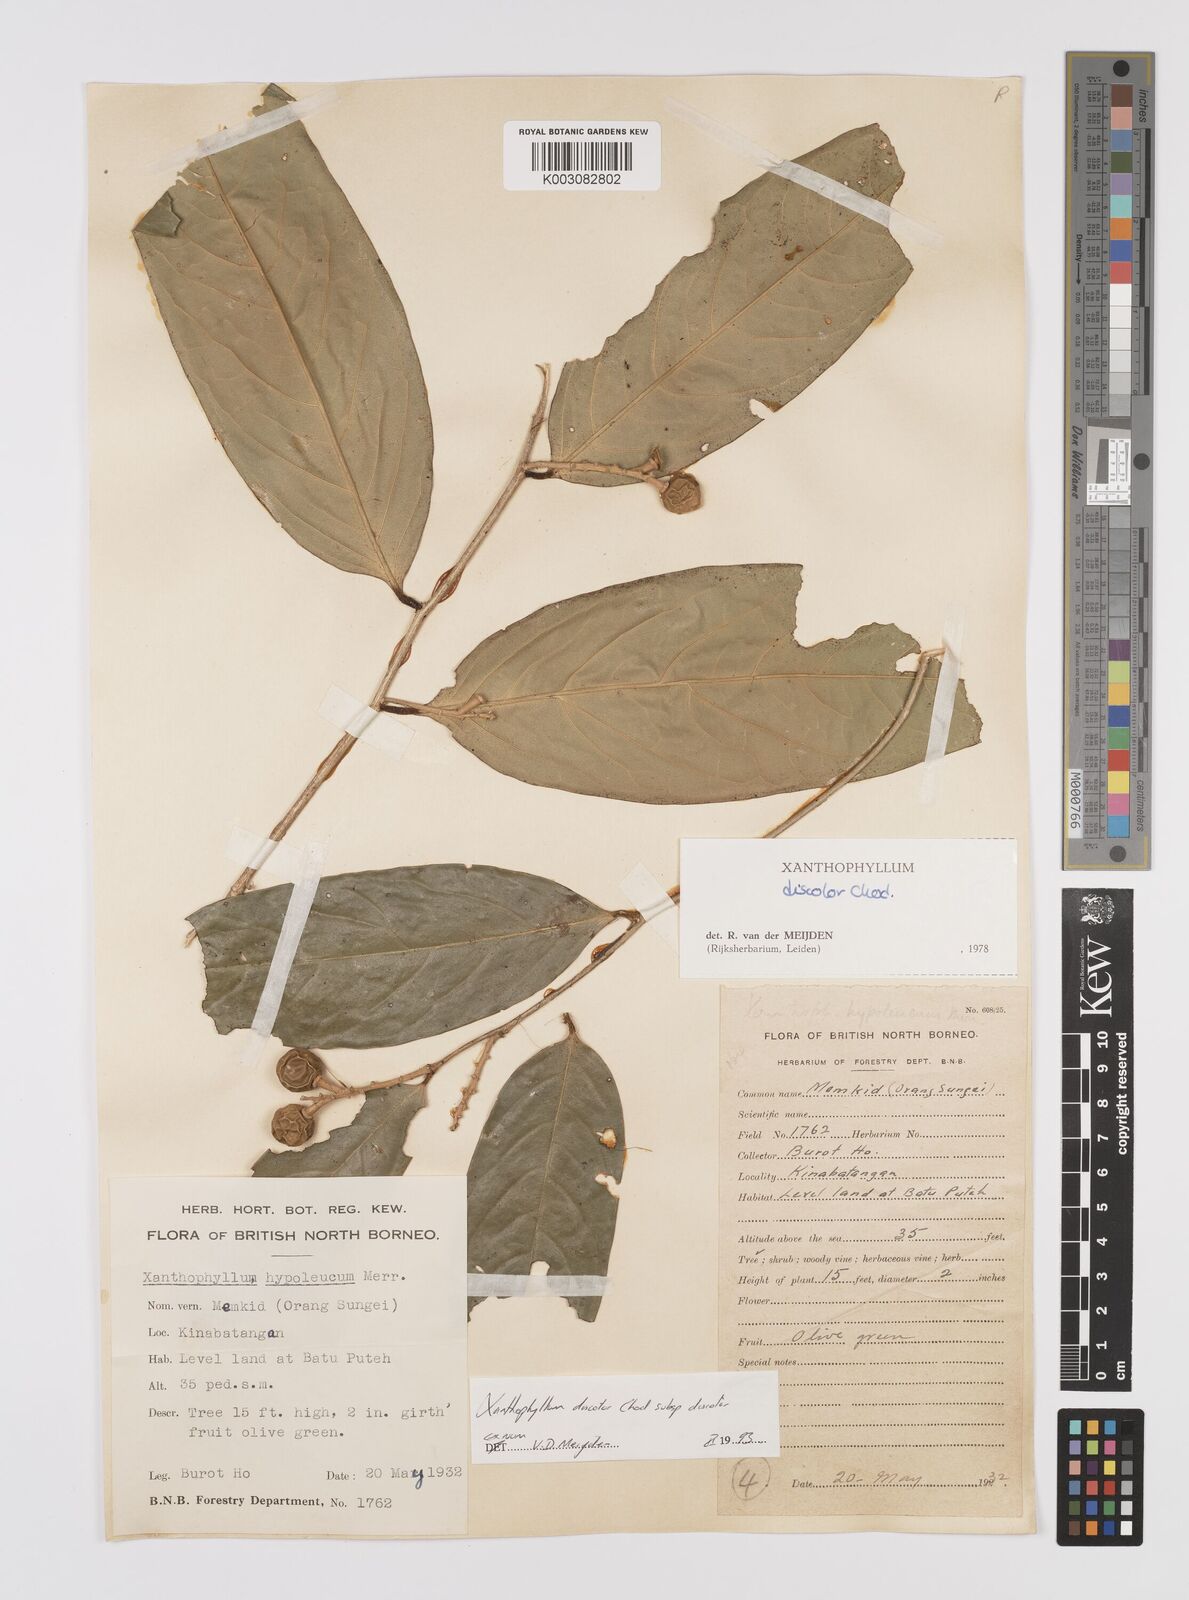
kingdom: Plantae
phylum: Tracheophyta
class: Magnoliopsida
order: Fabales
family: Polygalaceae
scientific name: Polygalaceae
